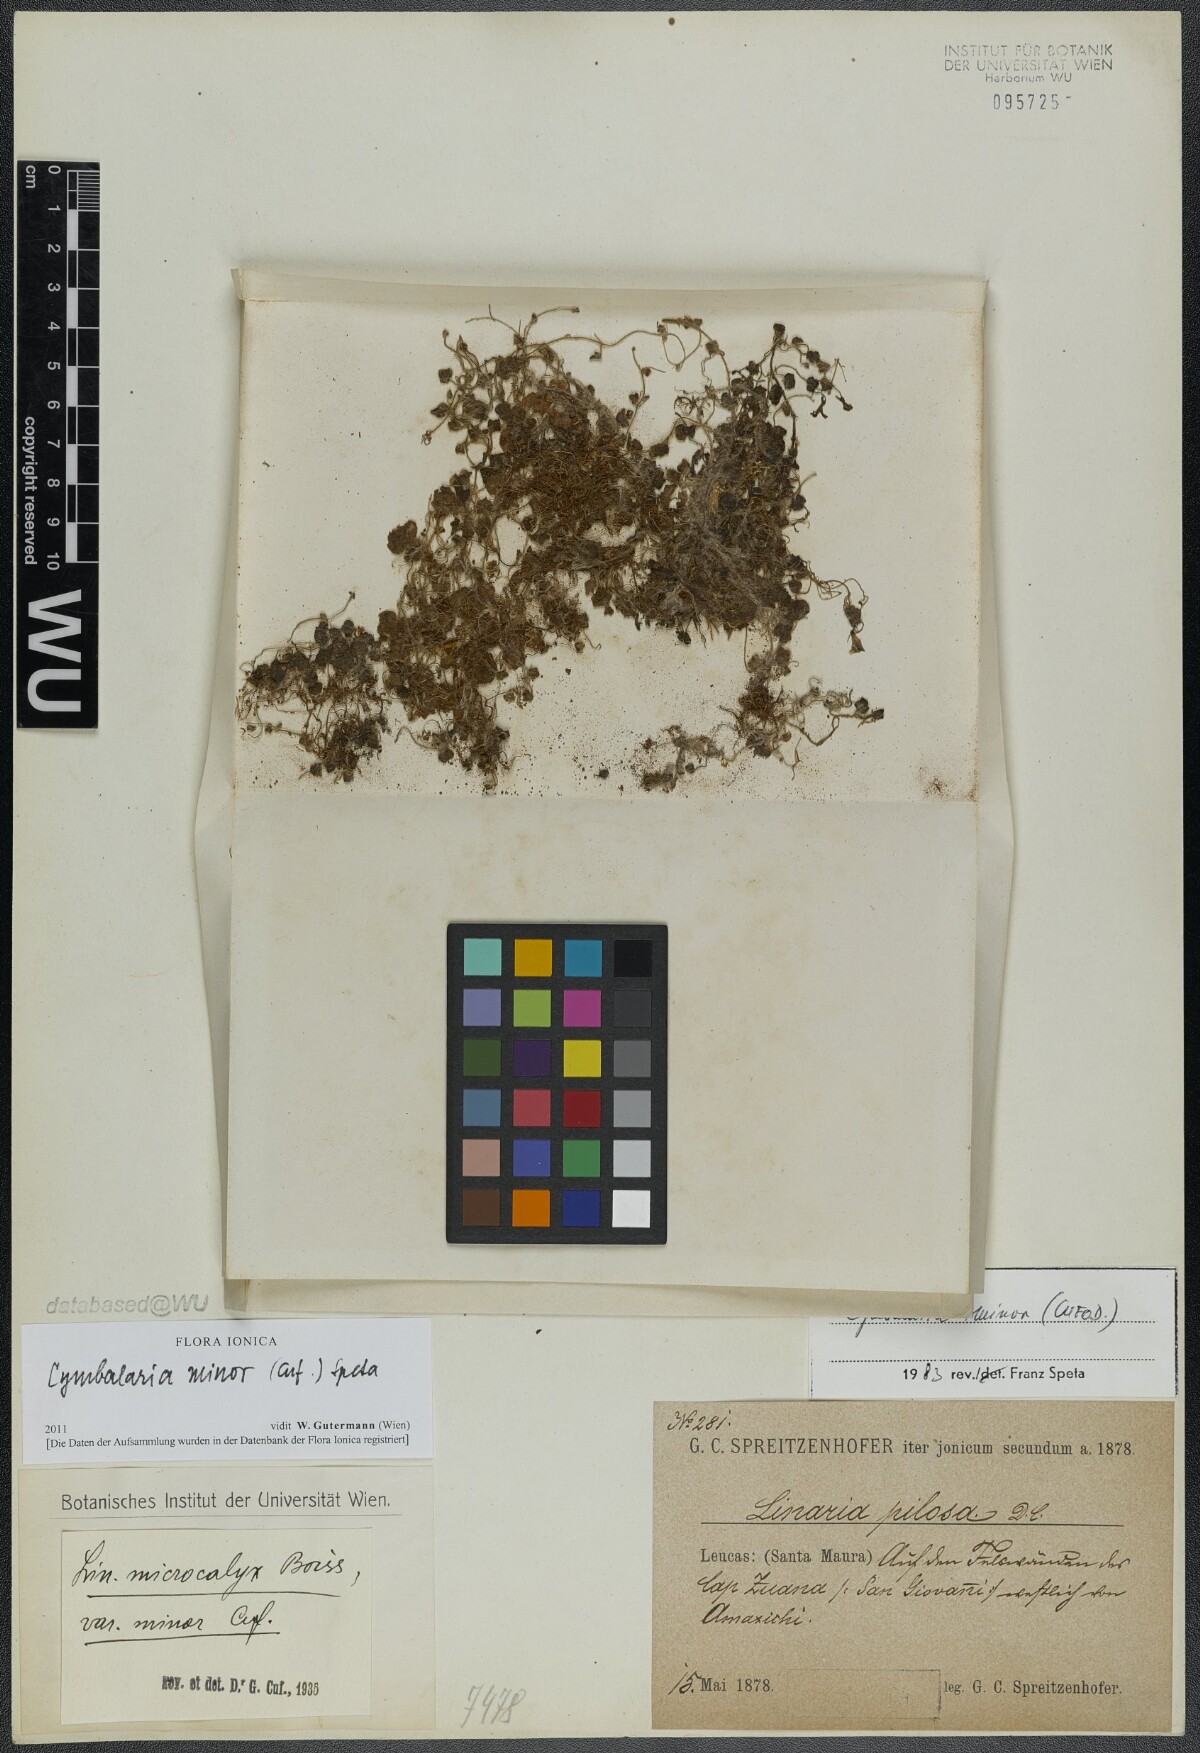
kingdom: Plantae
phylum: Tracheophyta
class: Magnoliopsida
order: Lamiales
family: Plantaginaceae
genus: Cymbalaria
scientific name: Cymbalaria minor
